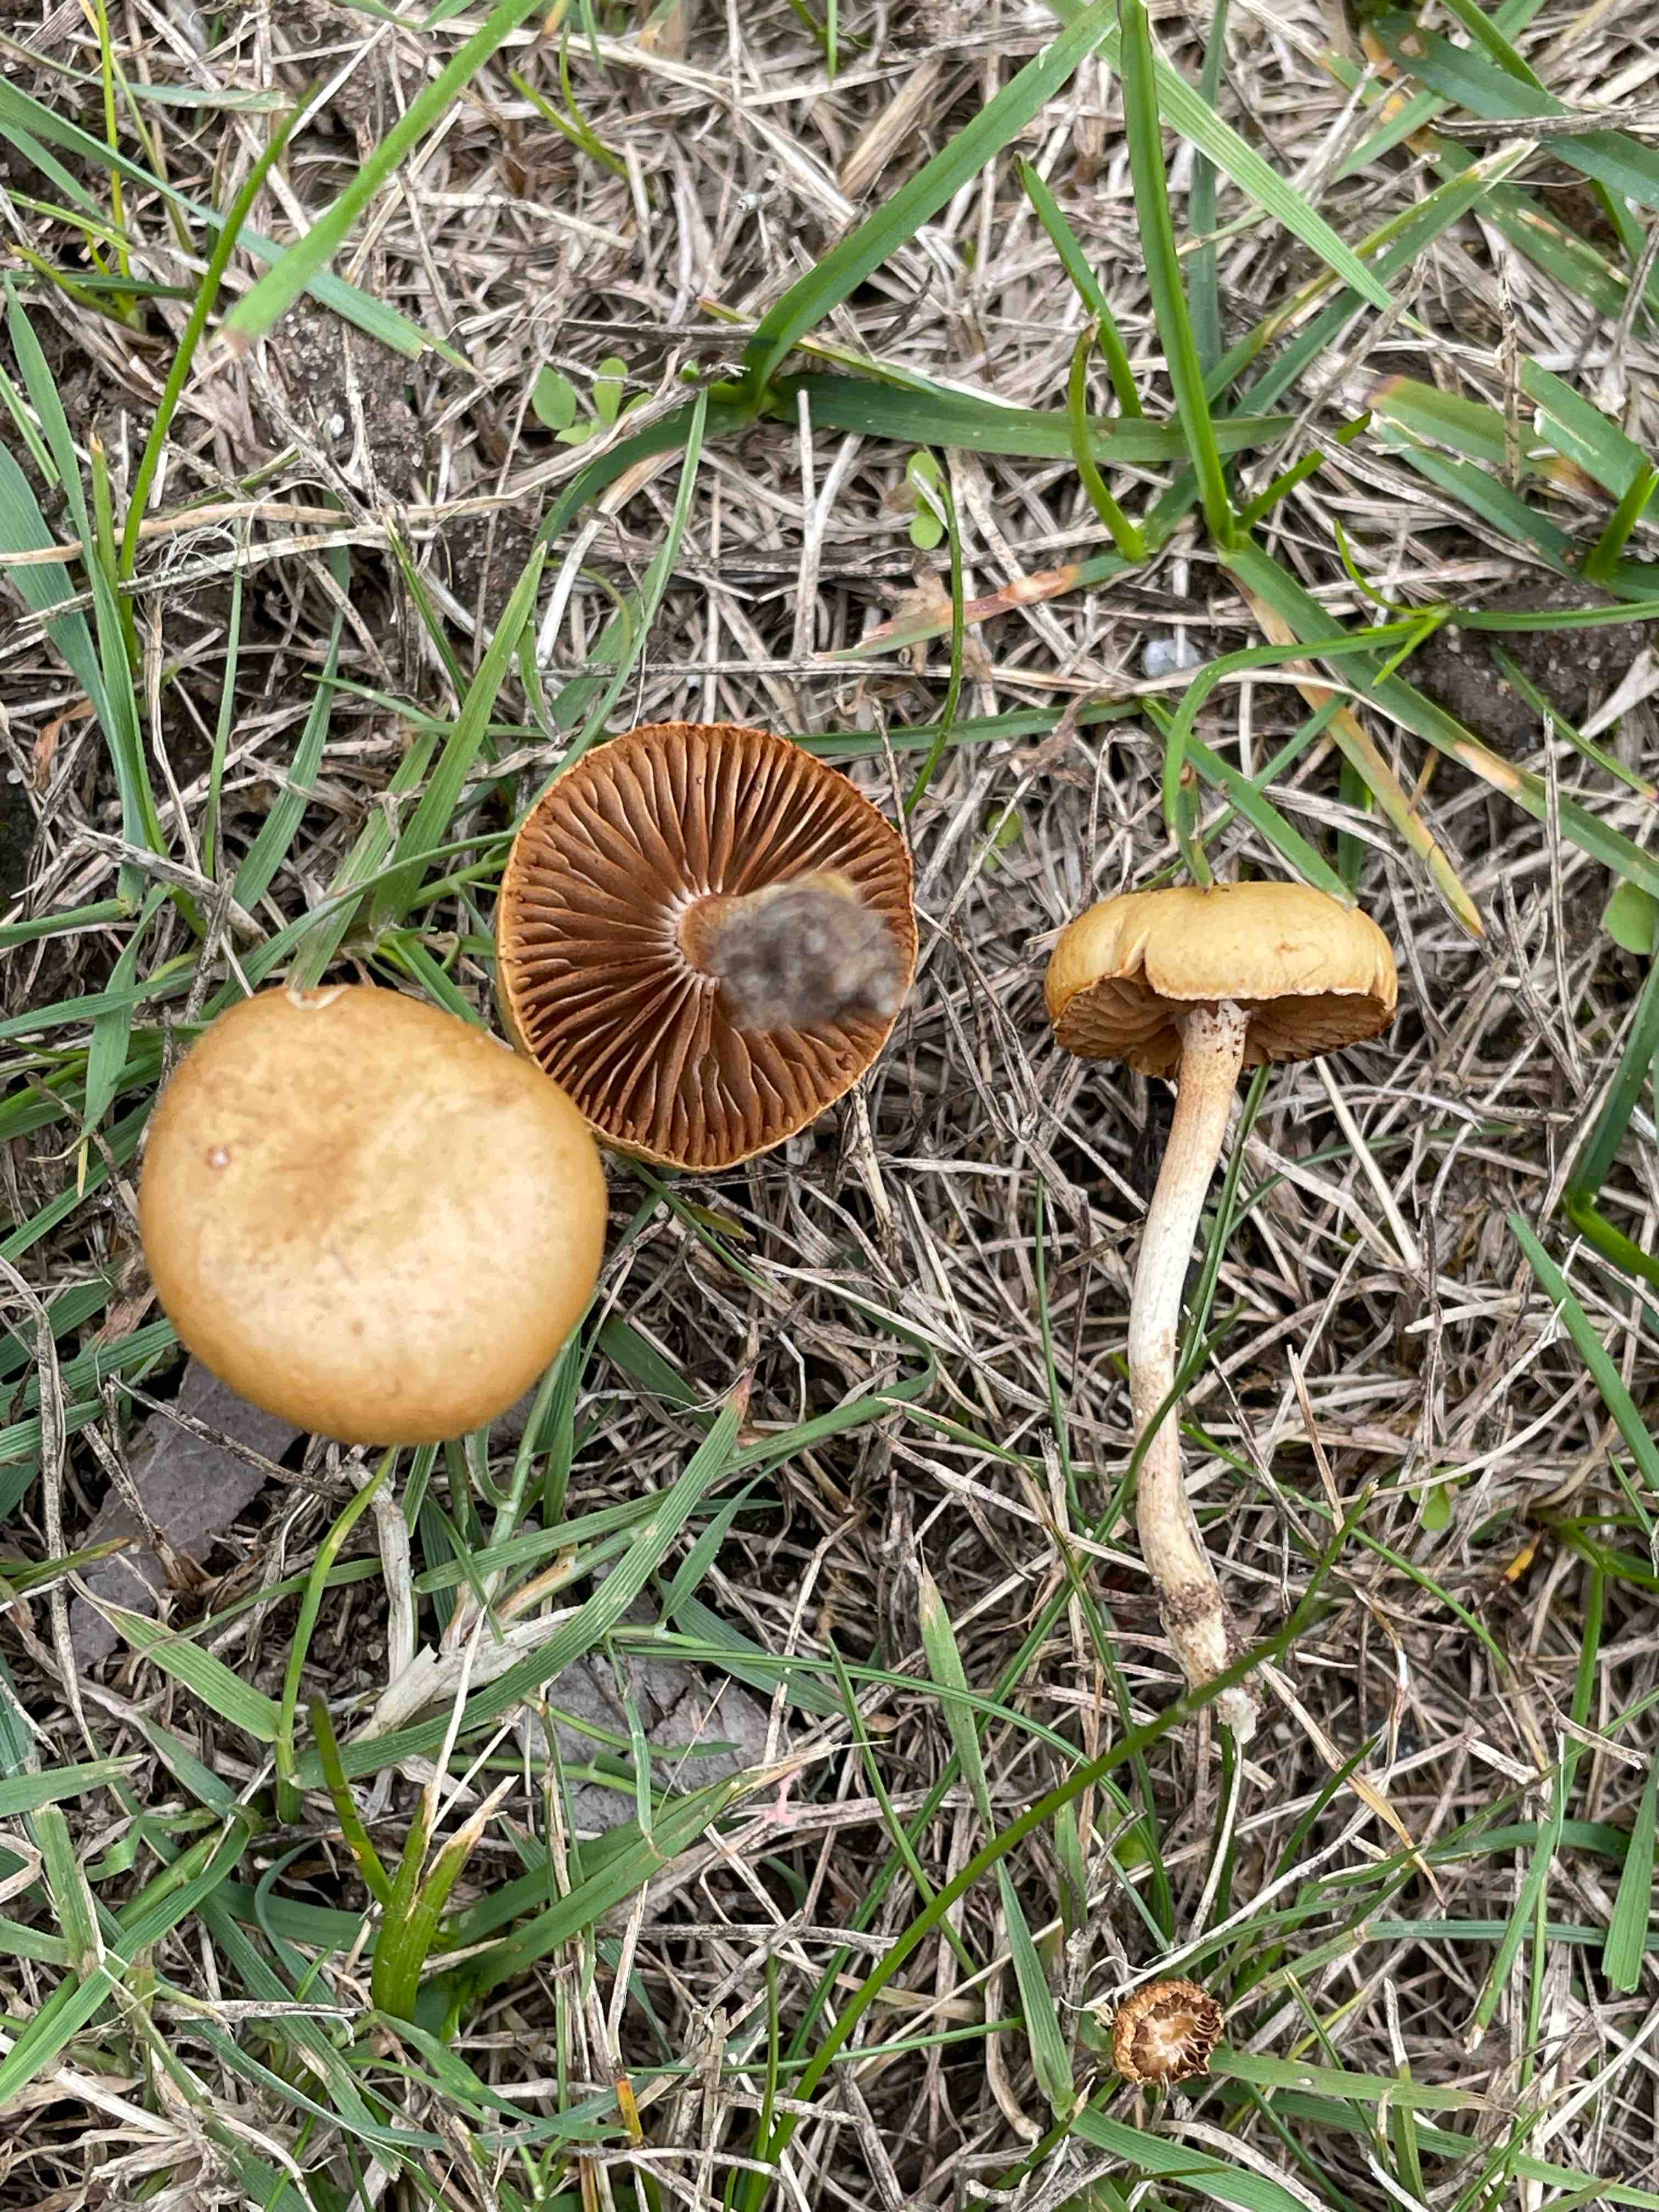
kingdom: Fungi
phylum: Basidiomycota
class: Agaricomycetes
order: Agaricales
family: Strophariaceae
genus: Agrocybe
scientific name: Agrocybe pediades
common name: almindelig agerhat
